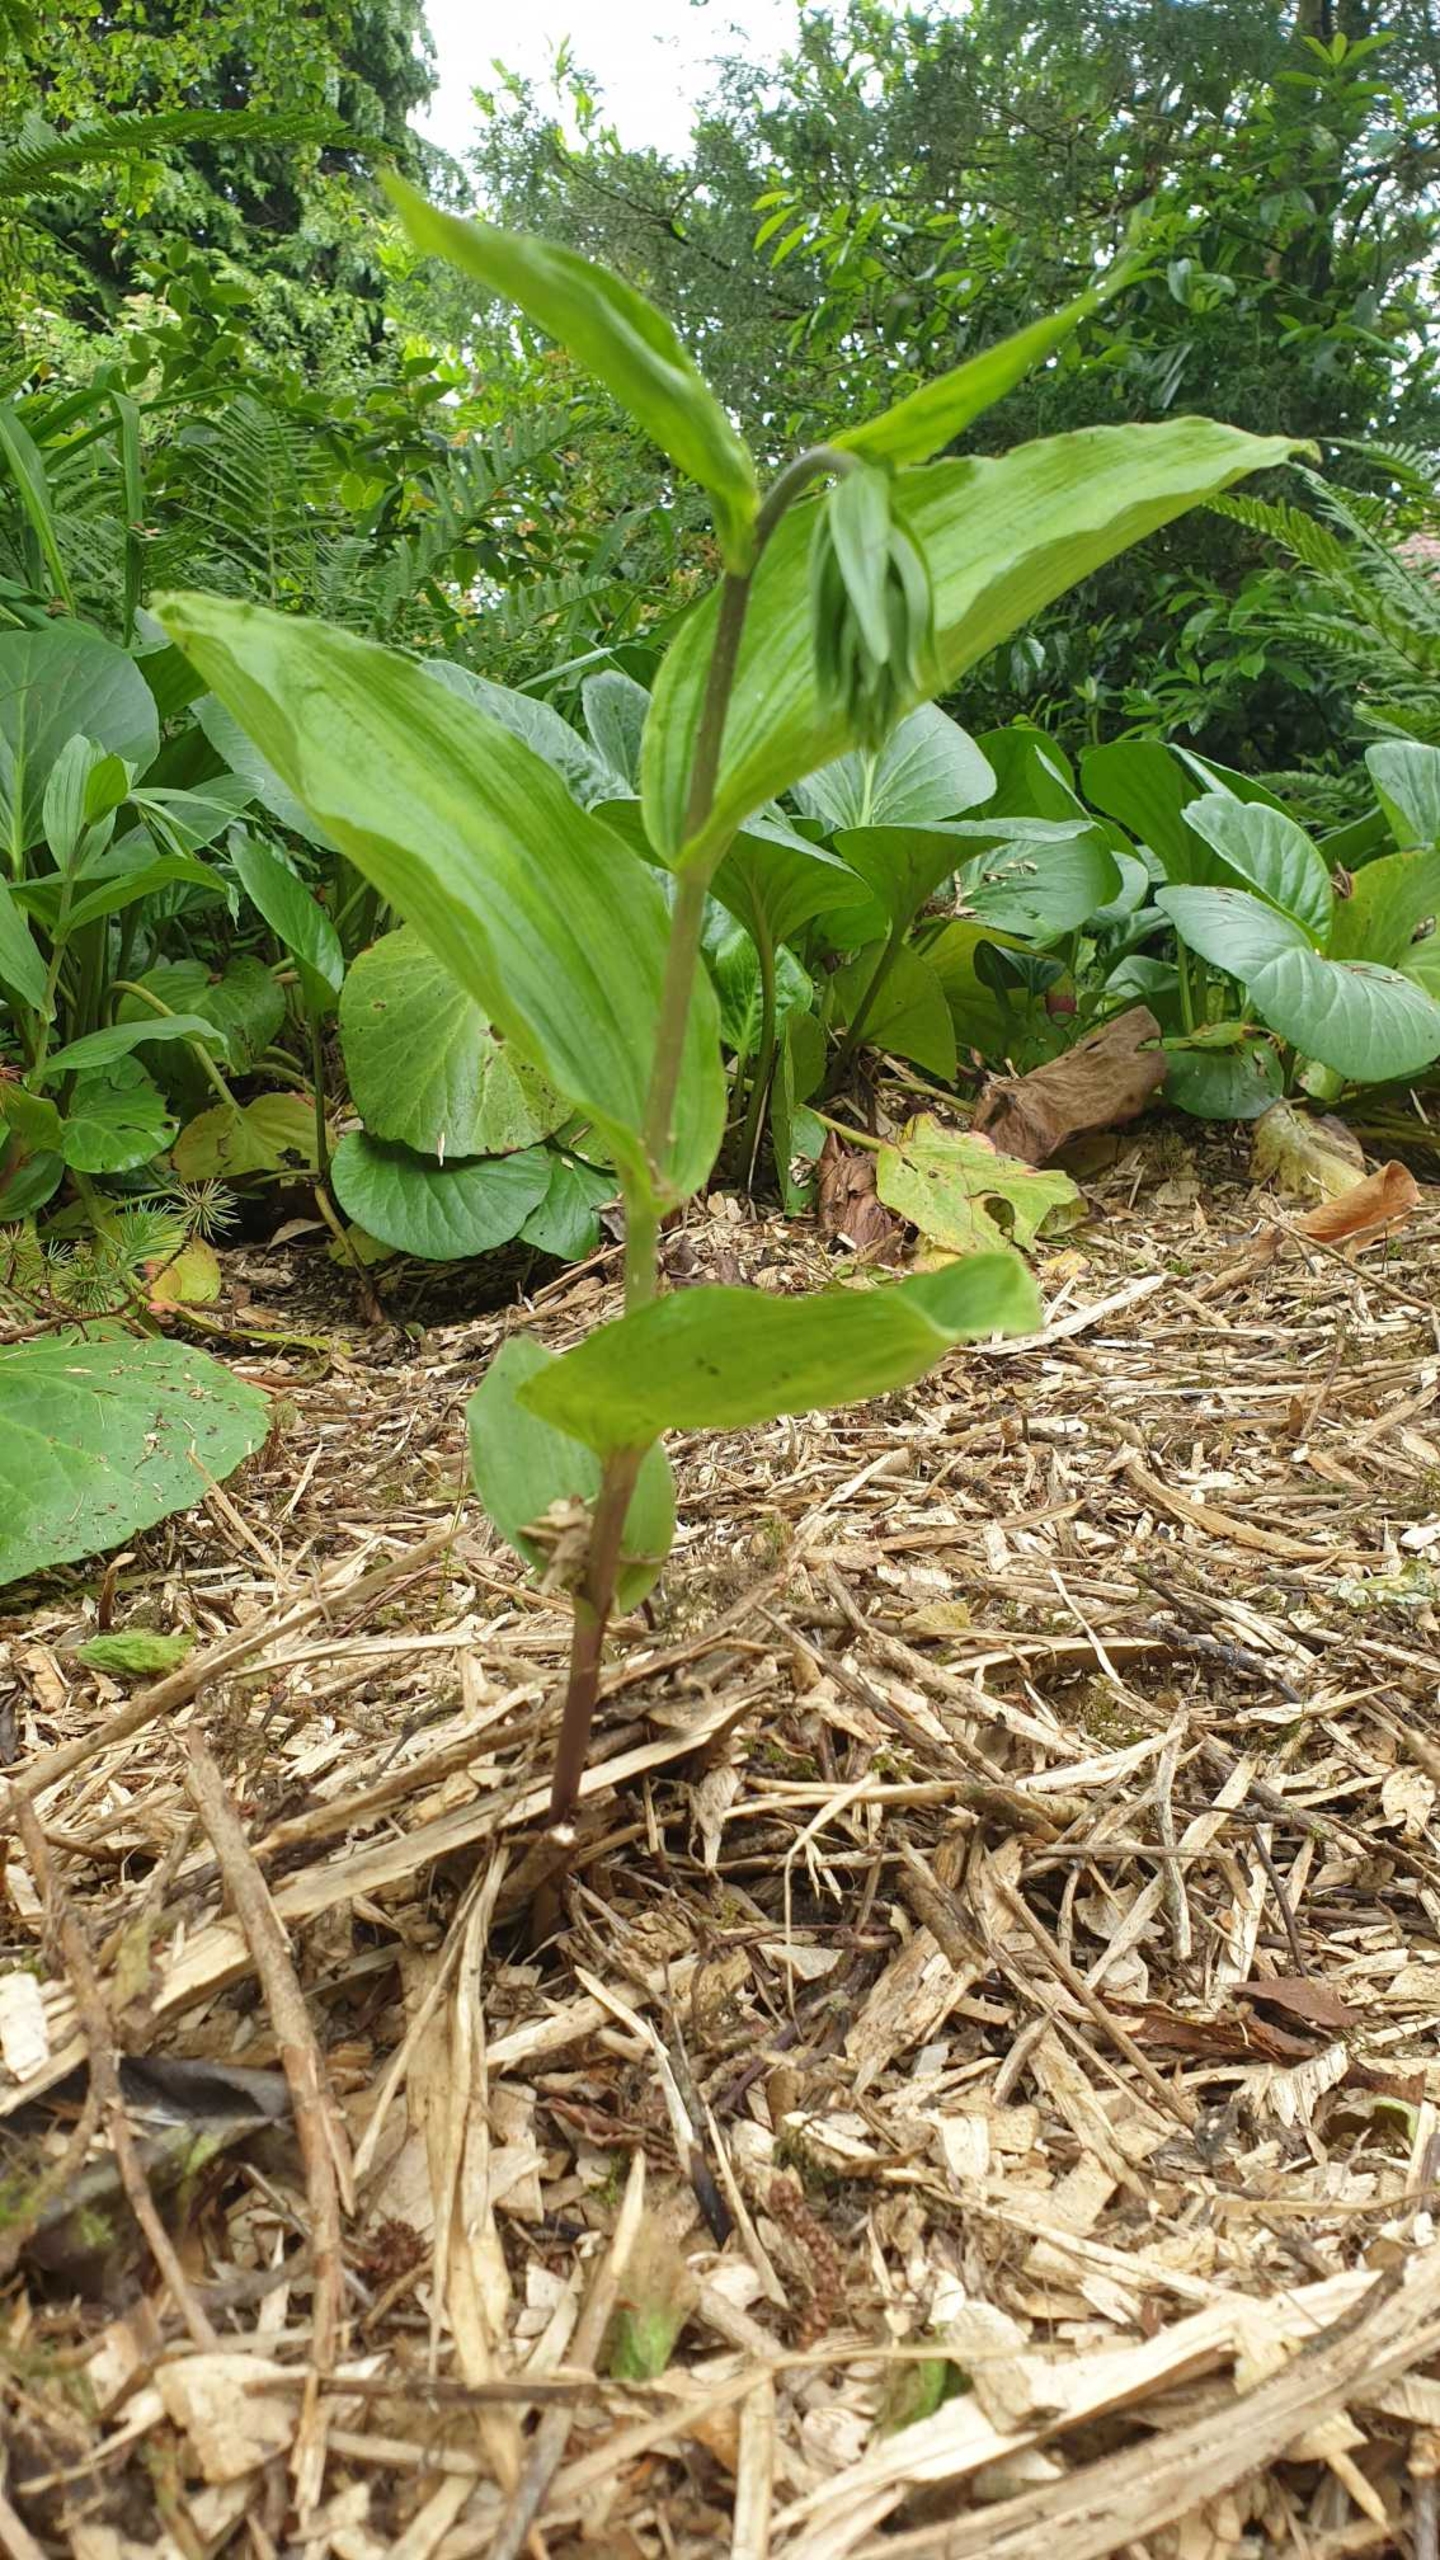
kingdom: Plantae
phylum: Tracheophyta
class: Liliopsida
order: Asparagales
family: Orchidaceae
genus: Epipactis
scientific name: Epipactis helleborine
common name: Skov-hullæbe
